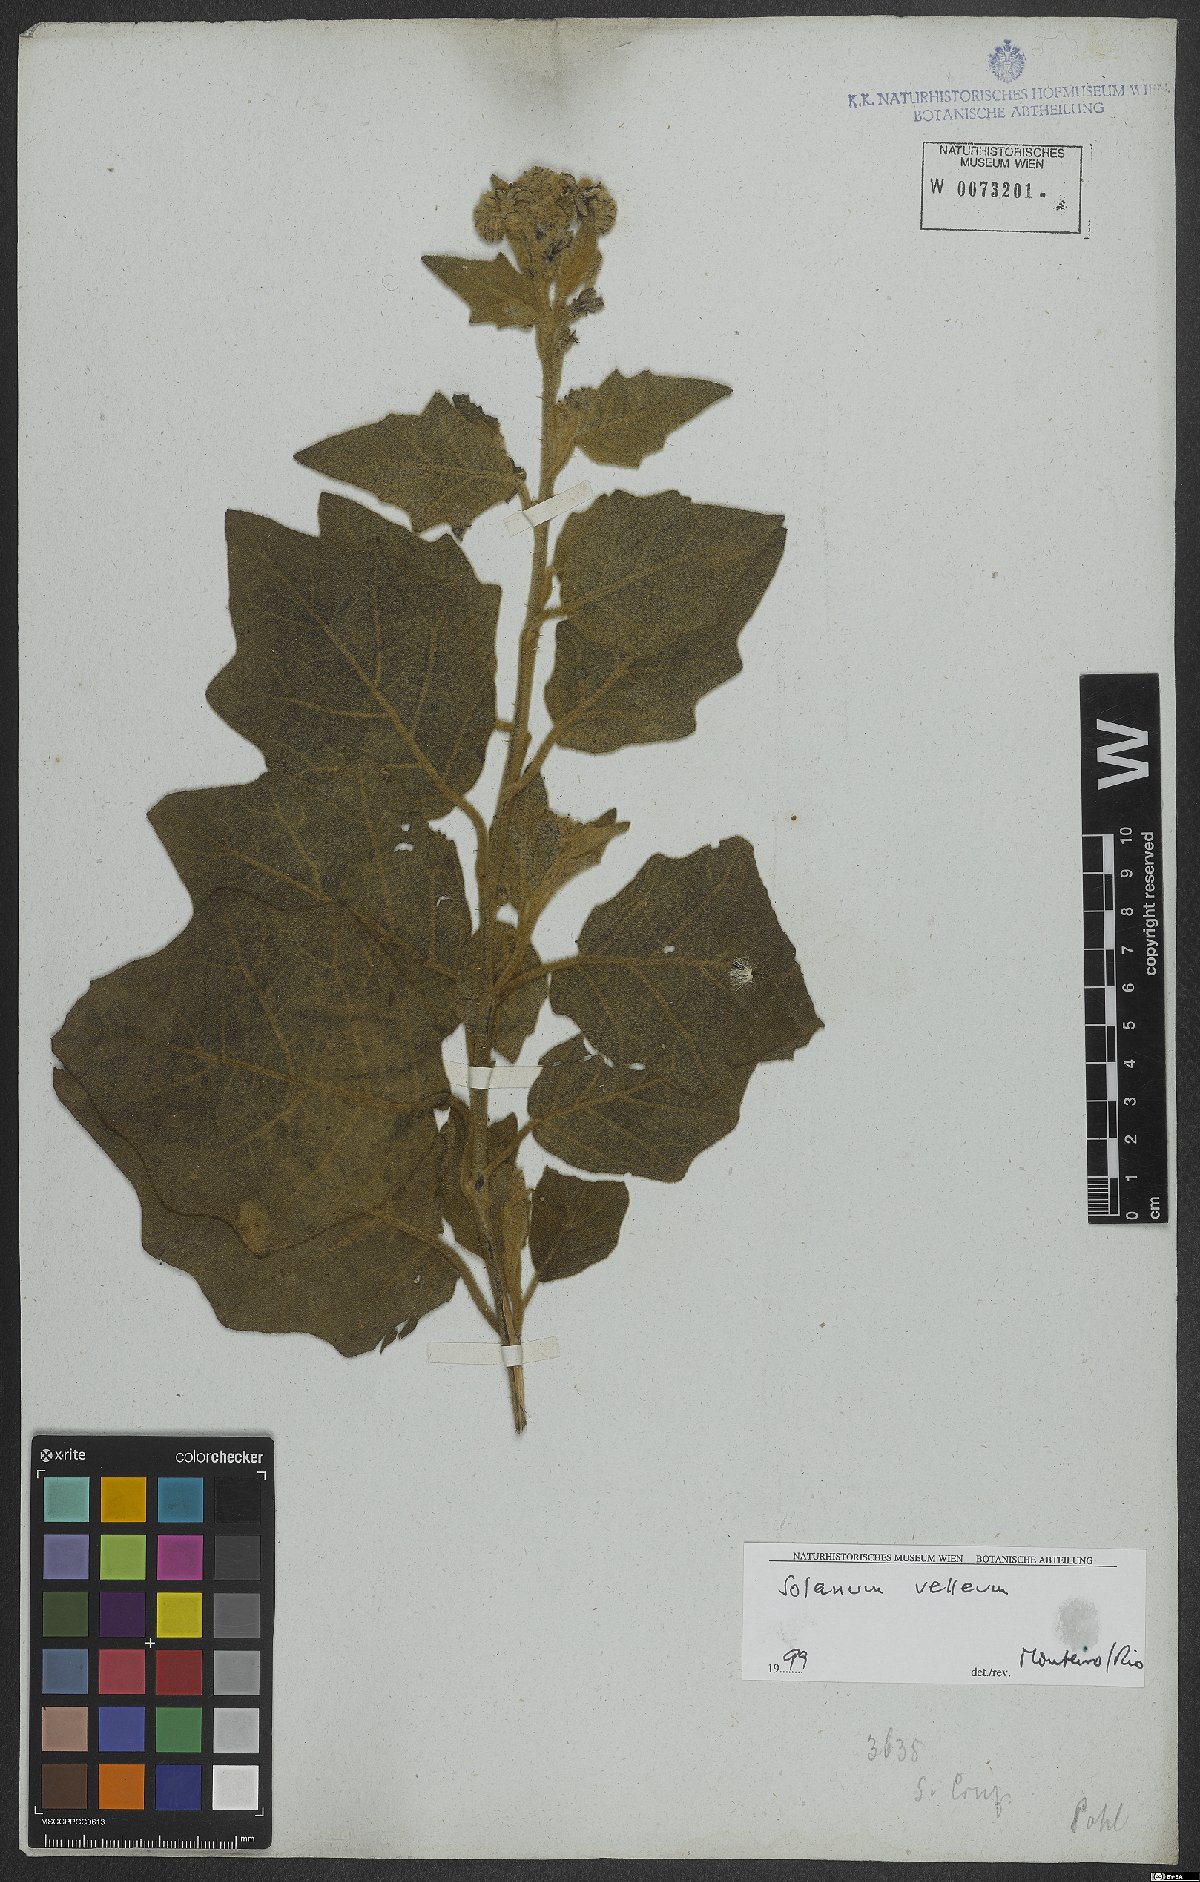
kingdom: Plantae
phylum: Tracheophyta
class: Magnoliopsida
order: Solanales
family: Solanaceae
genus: Solanum
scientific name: Solanum velleum
